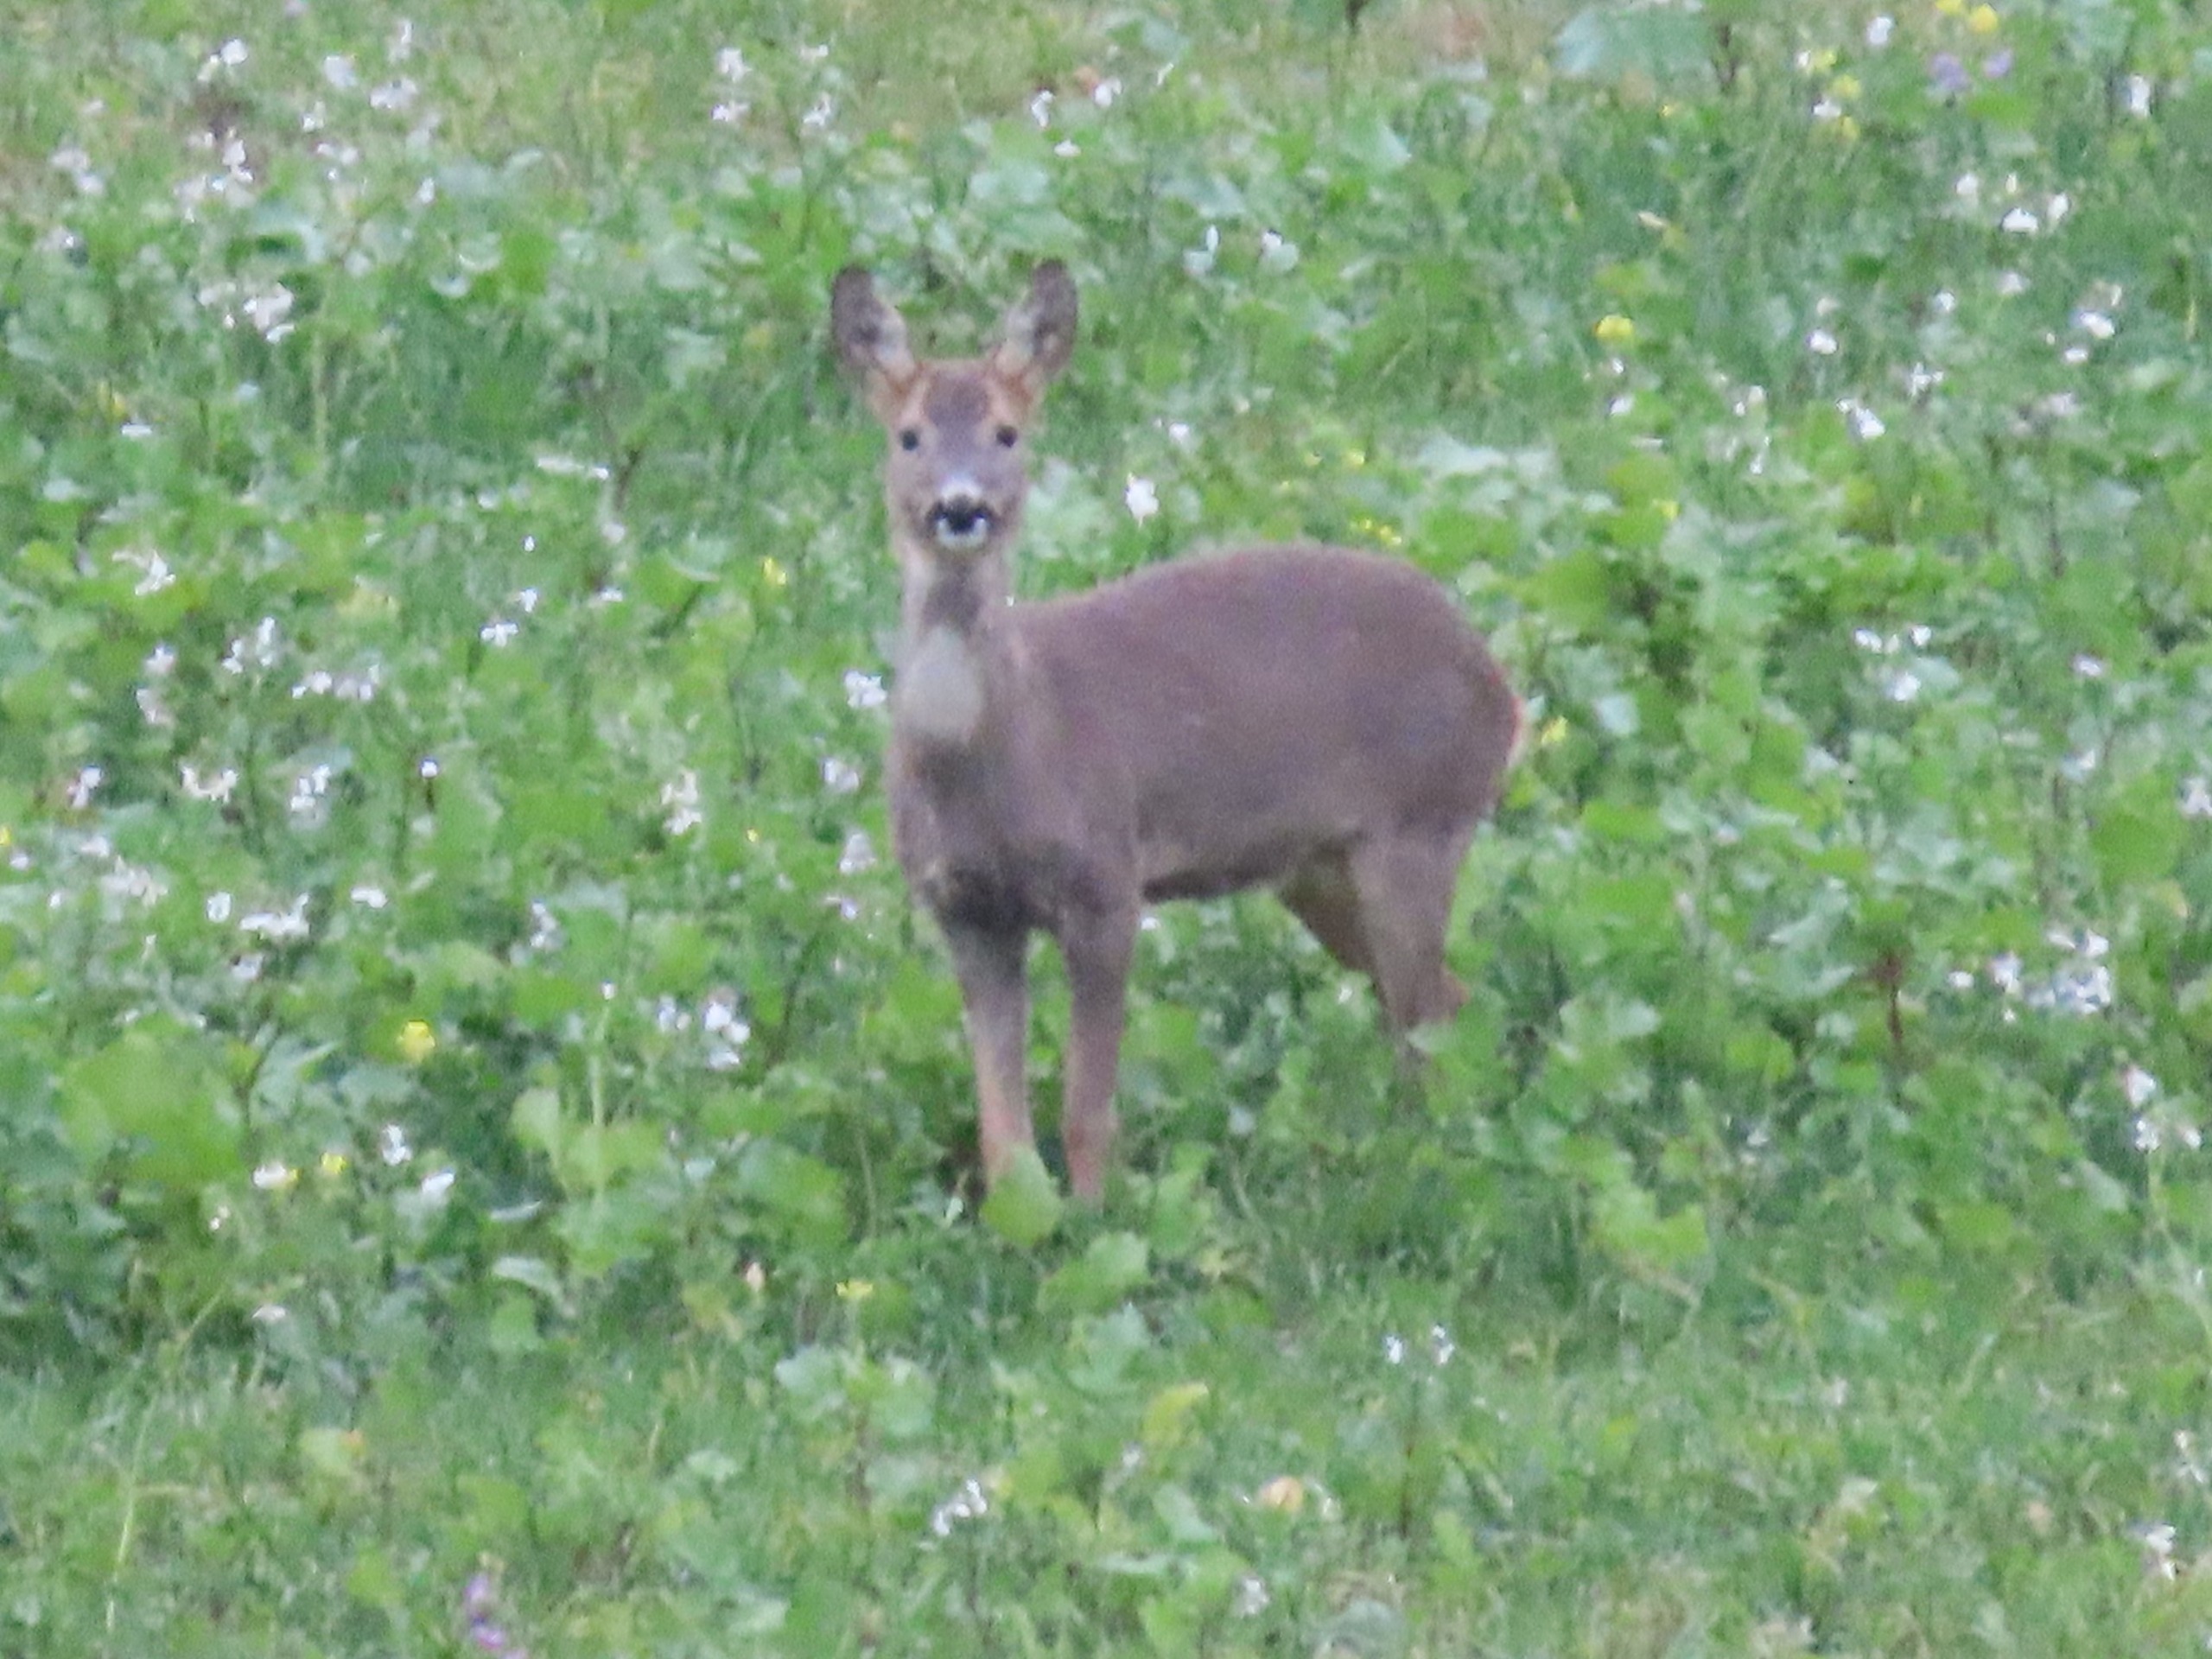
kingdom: Animalia
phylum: Chordata
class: Mammalia
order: Artiodactyla
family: Cervidae
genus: Capreolus
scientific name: Capreolus capreolus
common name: Rådyr
